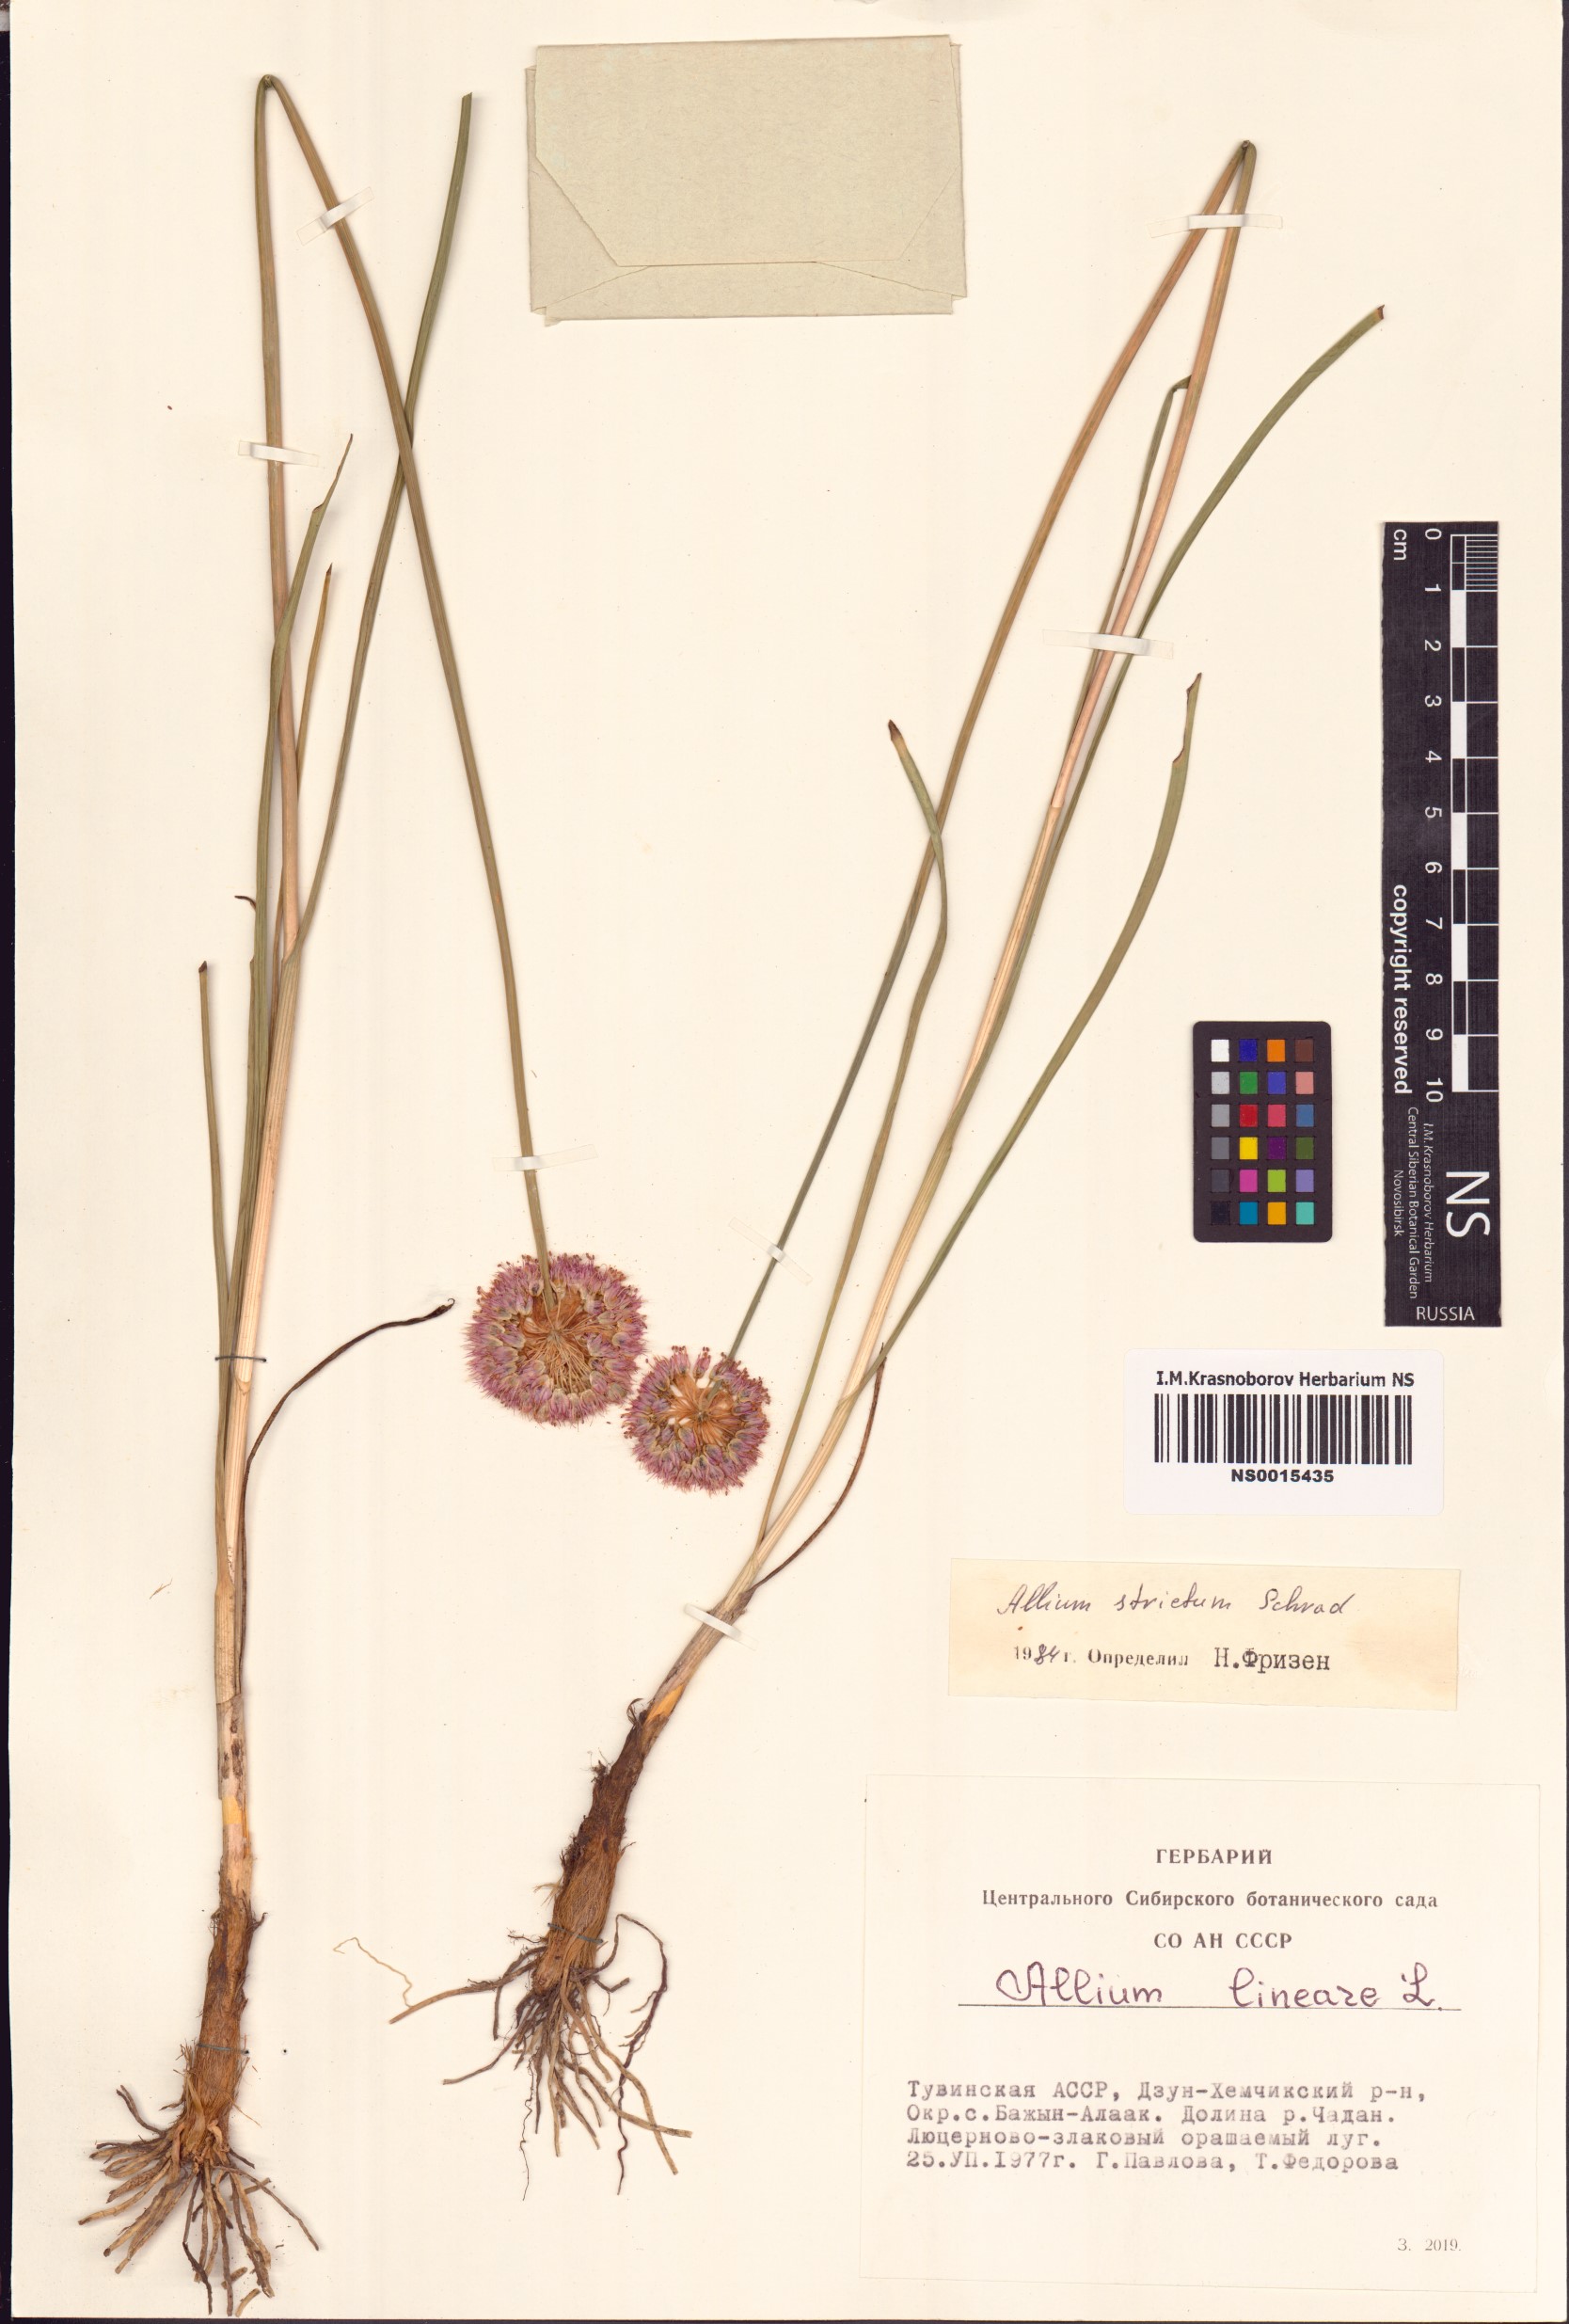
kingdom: Plantae
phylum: Tracheophyta
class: Liliopsida
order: Asparagales
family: Amaryllidaceae
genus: Allium
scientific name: Allium strictum
